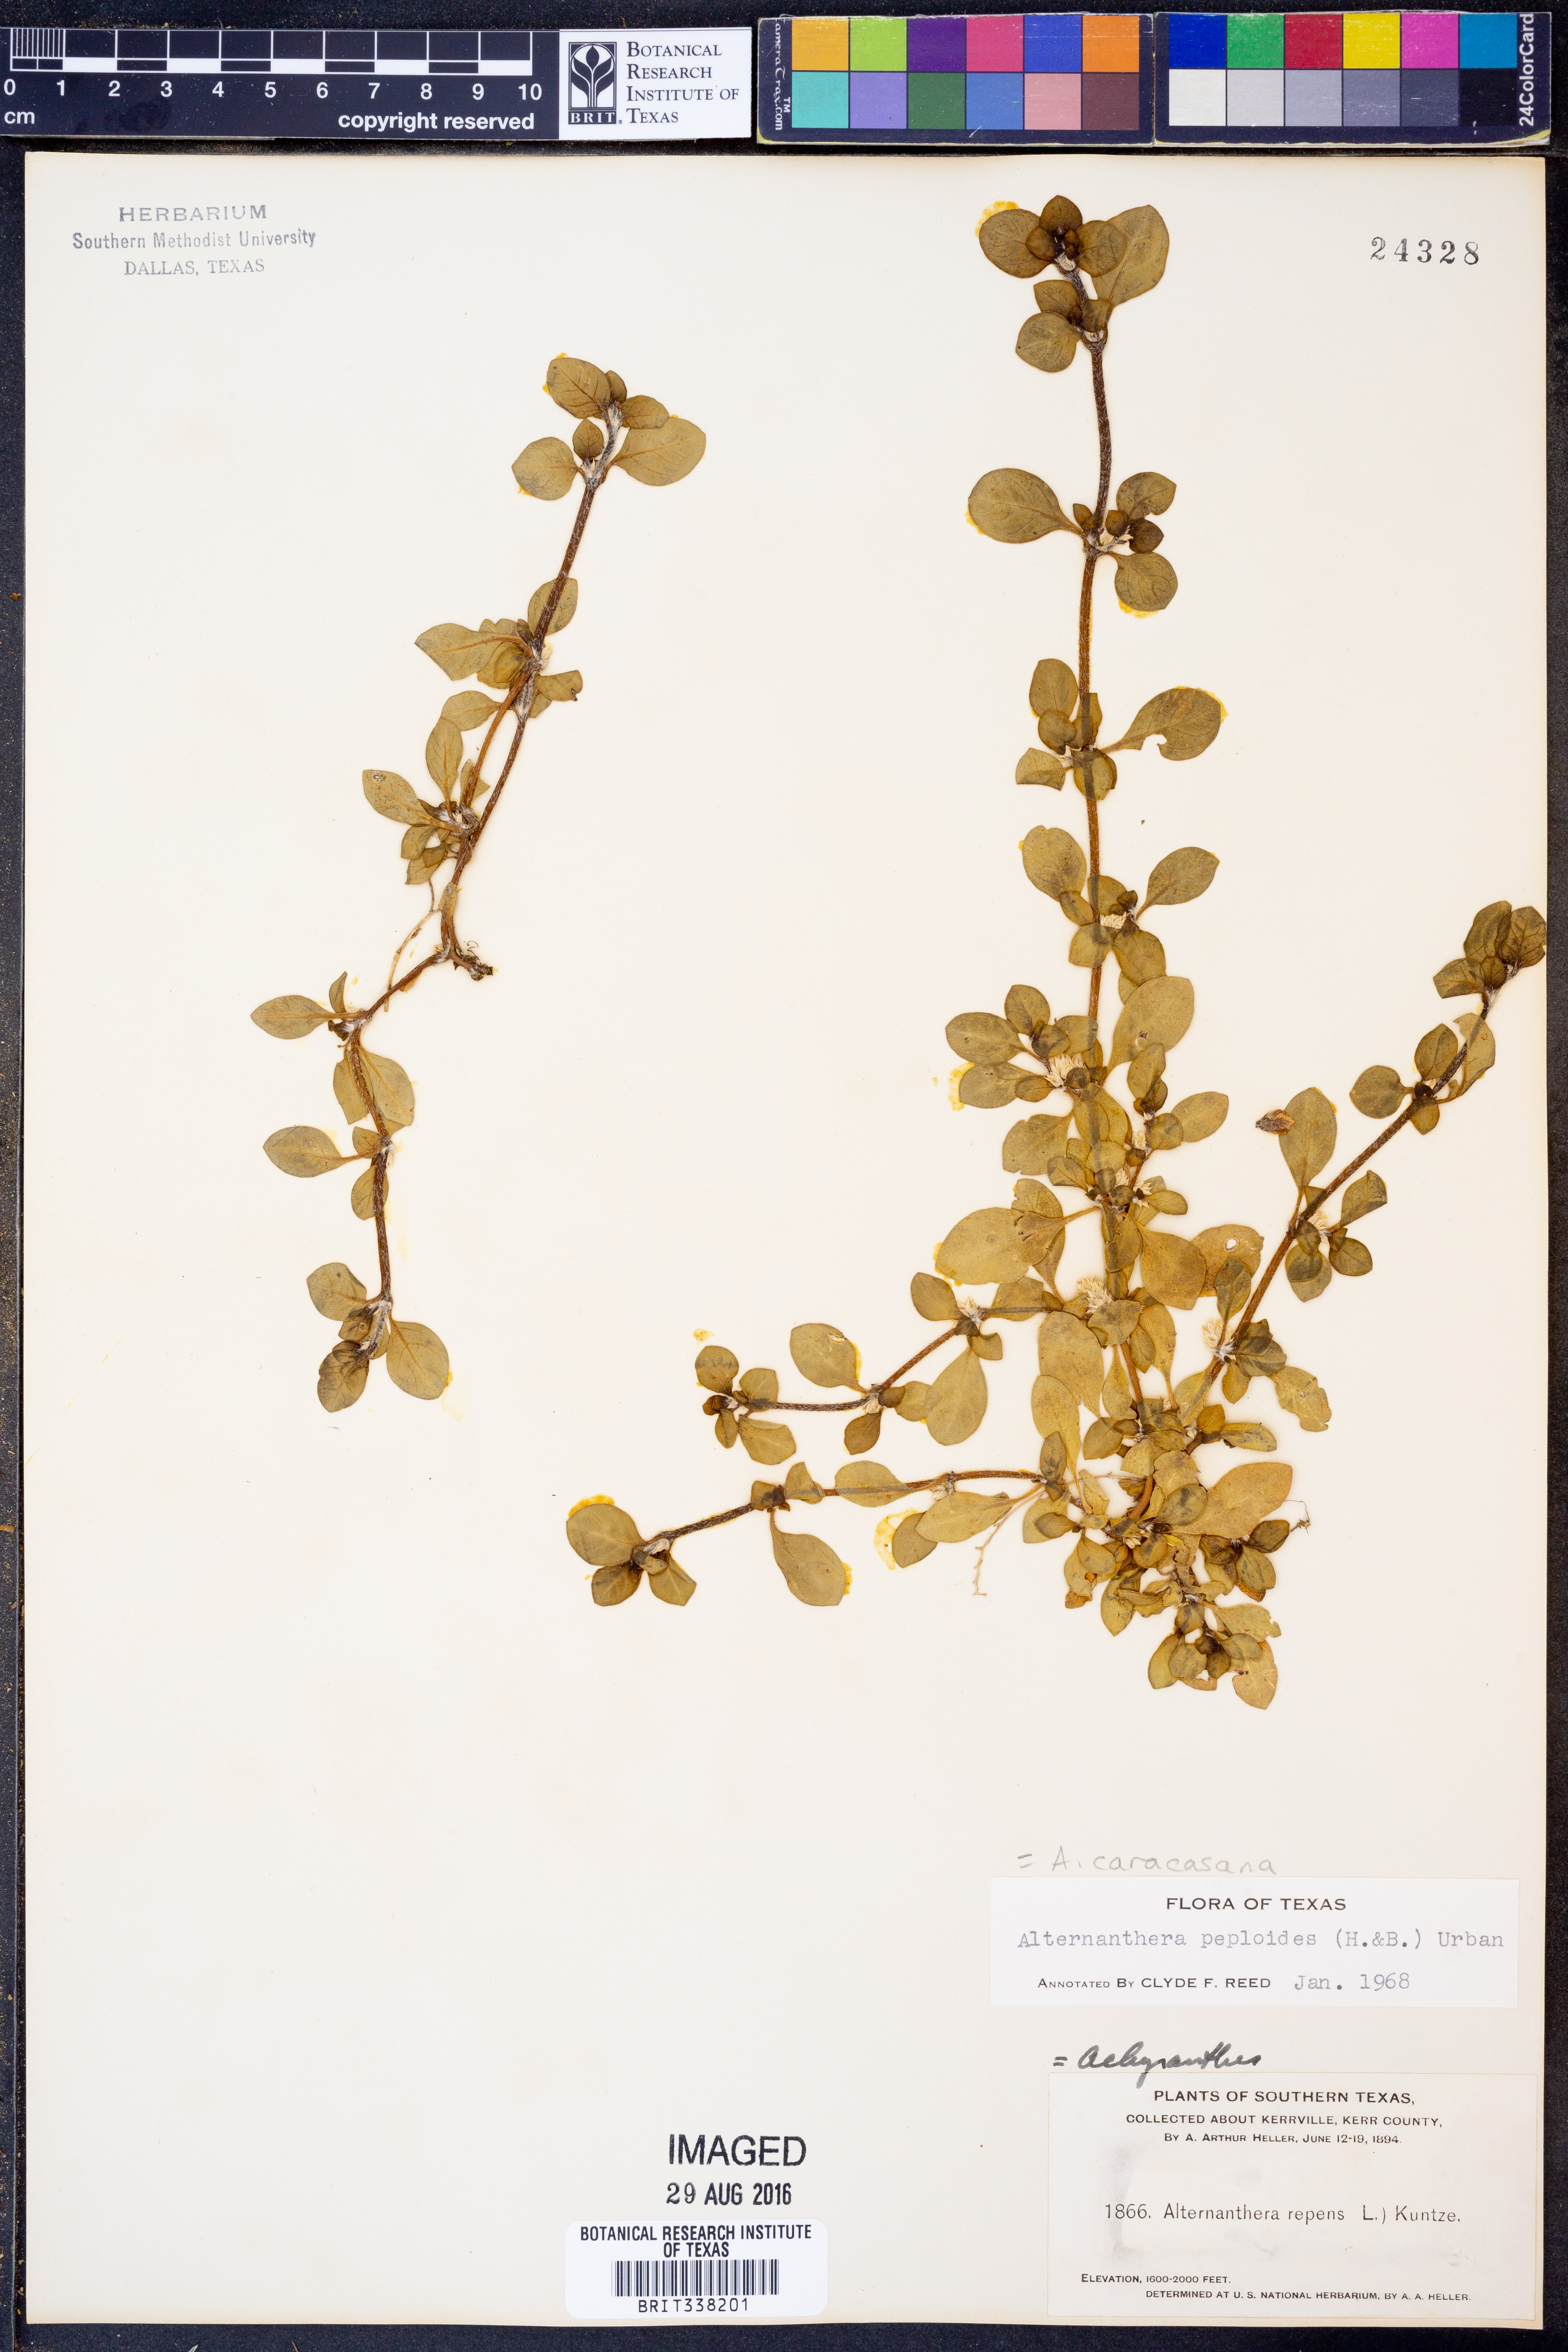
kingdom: Plantae
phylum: Tracheophyta
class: Magnoliopsida
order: Caryophyllales
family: Amaranthaceae
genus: Alternanthera
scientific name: Alternanthera caracasana
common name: Washerwoman
